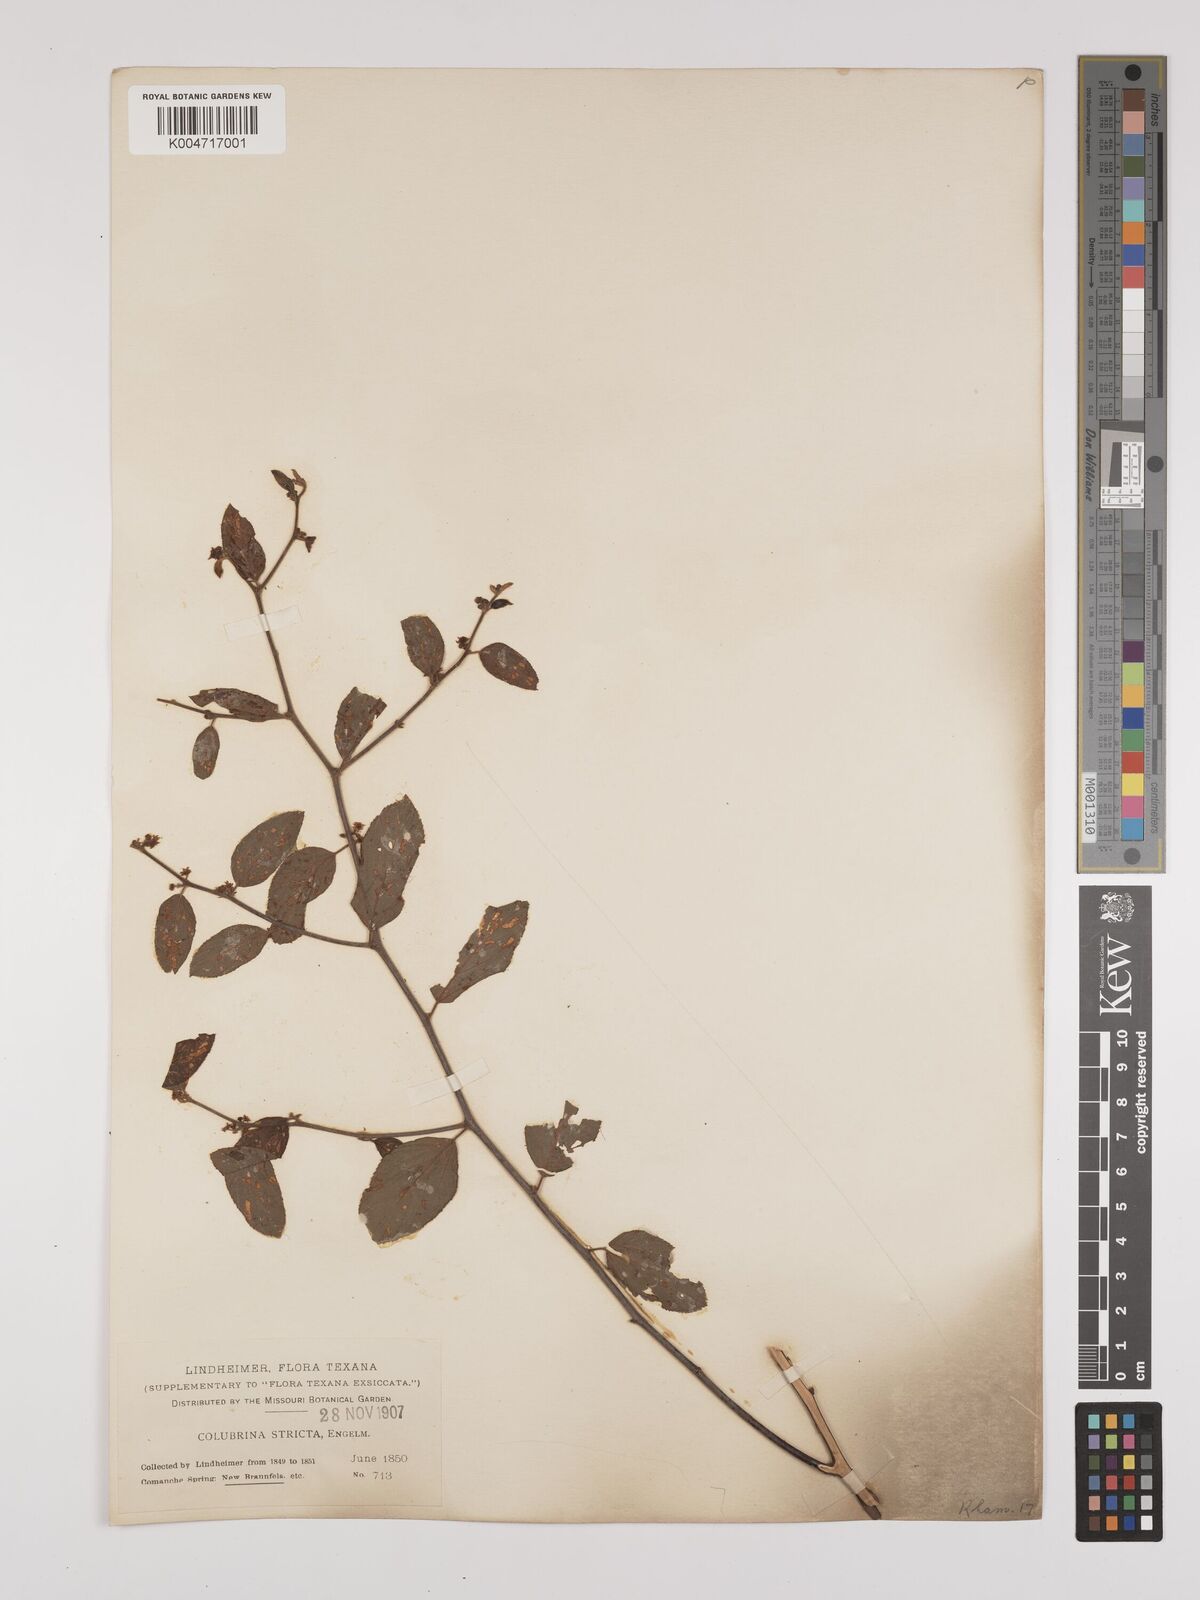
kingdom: Plantae
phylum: Tracheophyta
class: Magnoliopsida
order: Rosales
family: Rhamnaceae
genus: Colubrina
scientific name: Colubrina stricta
